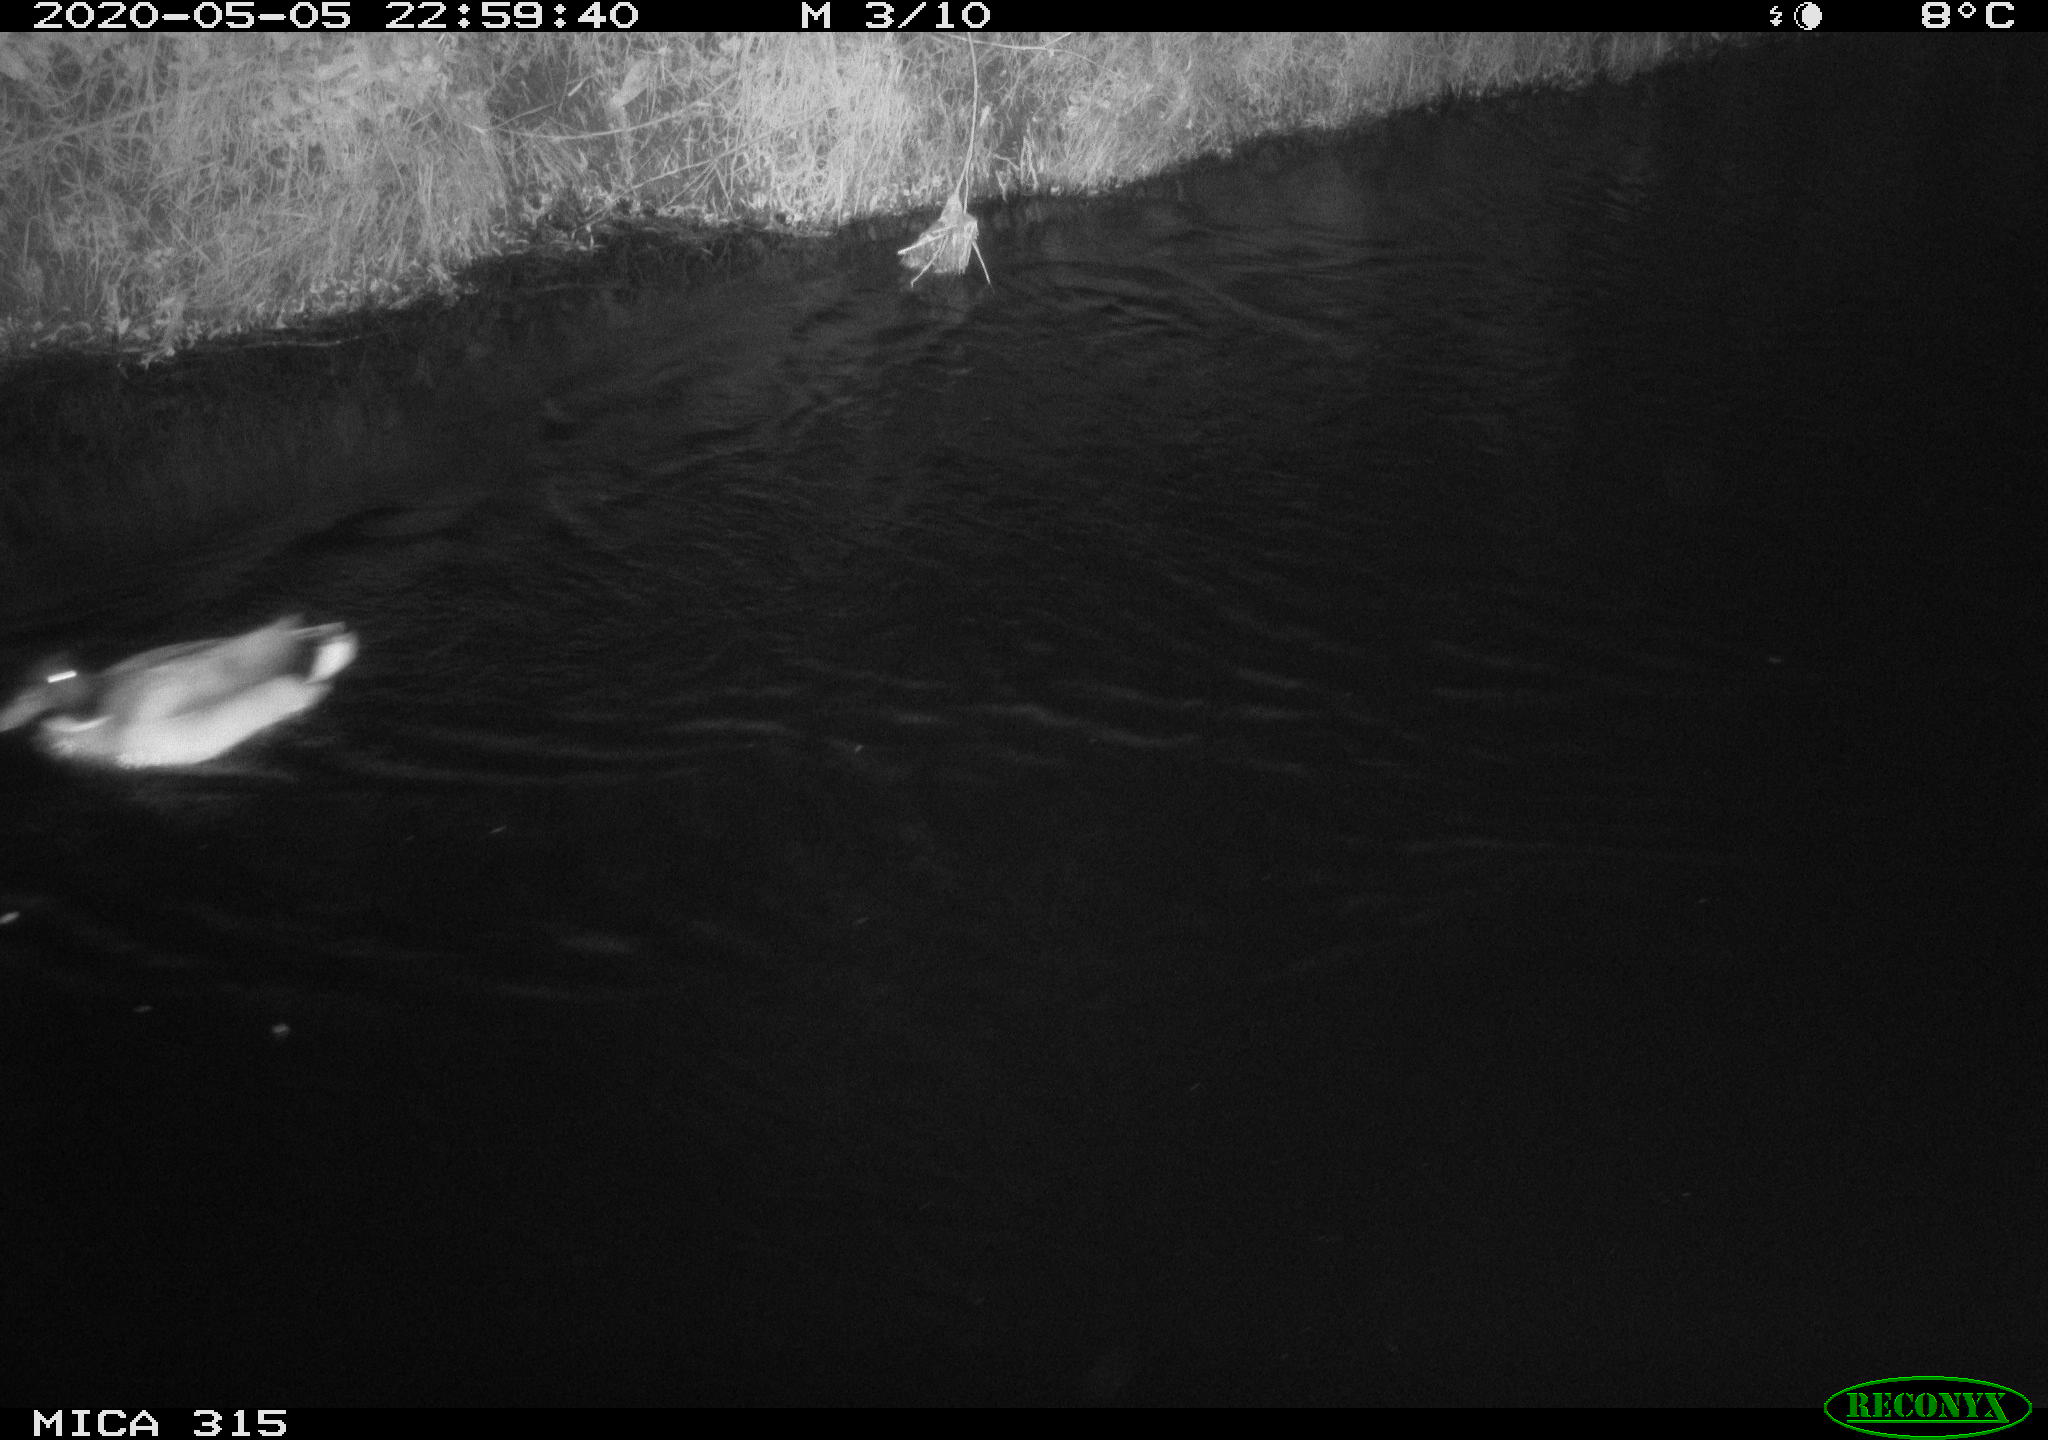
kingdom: Animalia
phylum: Chordata
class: Aves
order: Anseriformes
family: Anatidae
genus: Anas
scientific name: Anas platyrhynchos
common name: Mallard
